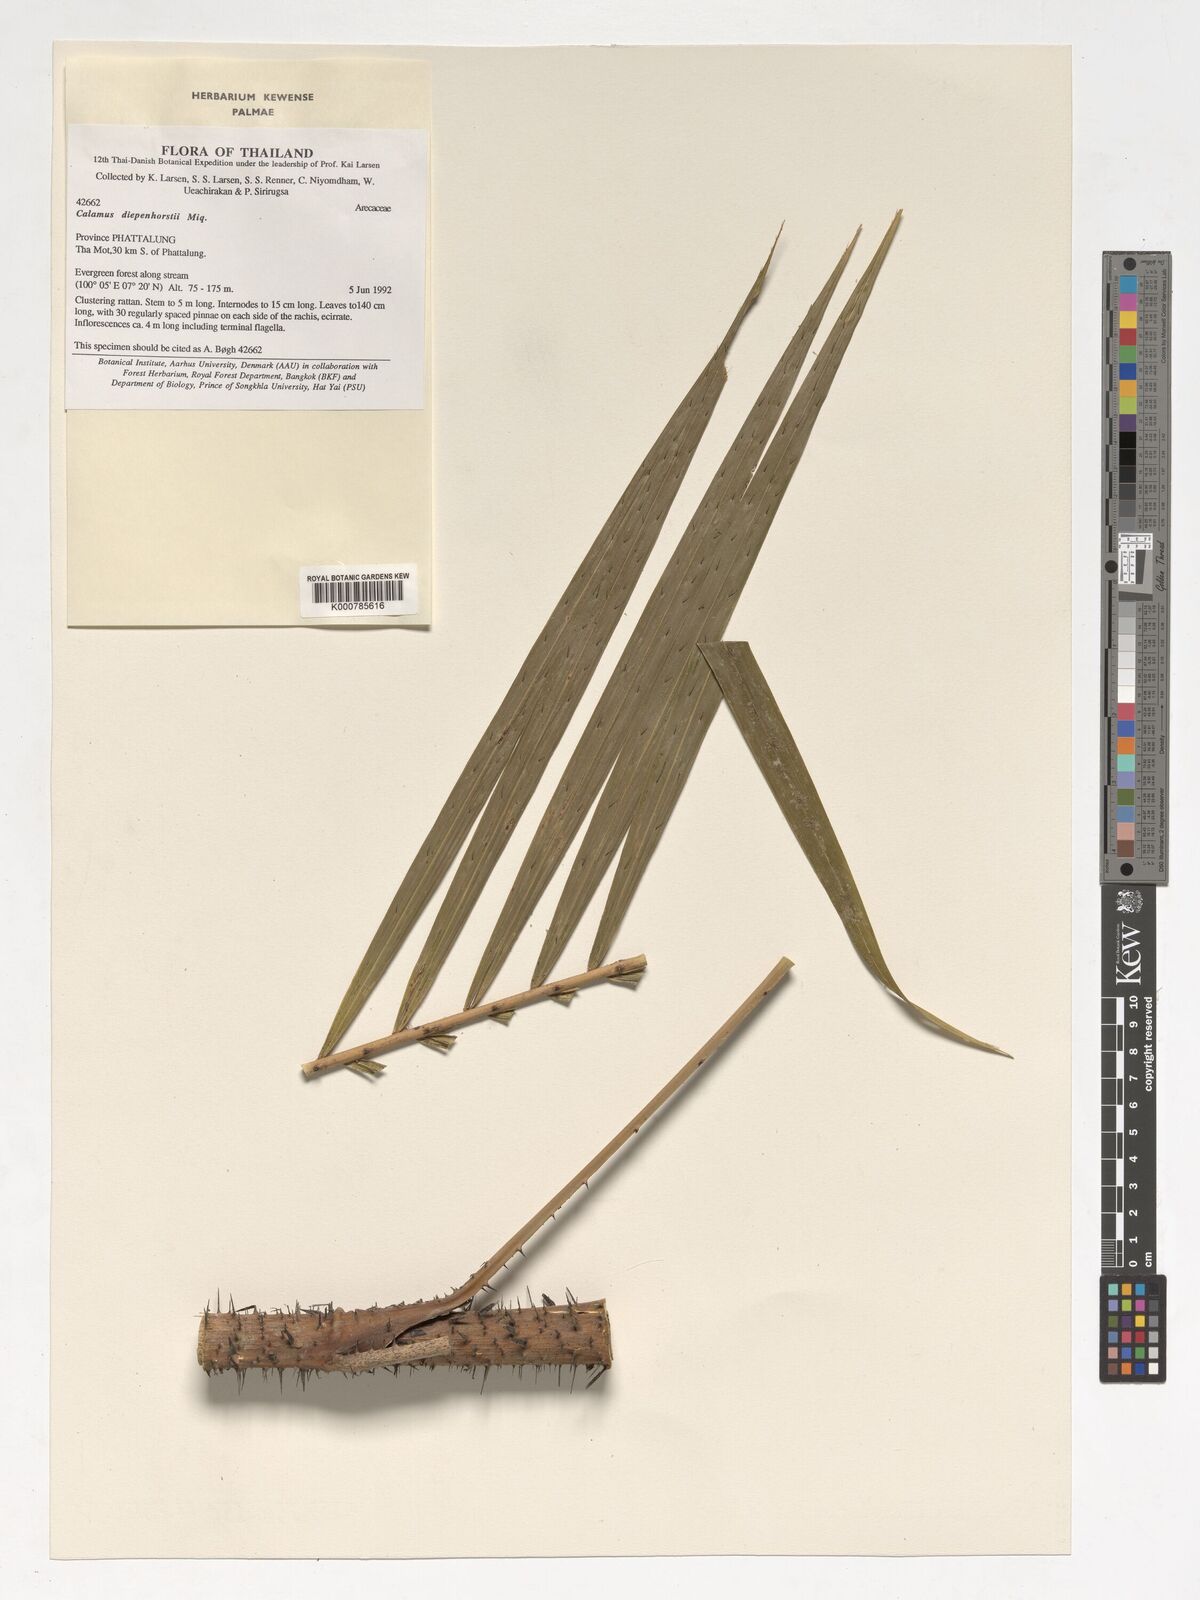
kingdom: Plantae
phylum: Tracheophyta
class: Liliopsida
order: Arecales
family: Arecaceae
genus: Calamus
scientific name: Calamus diepenhorstii
